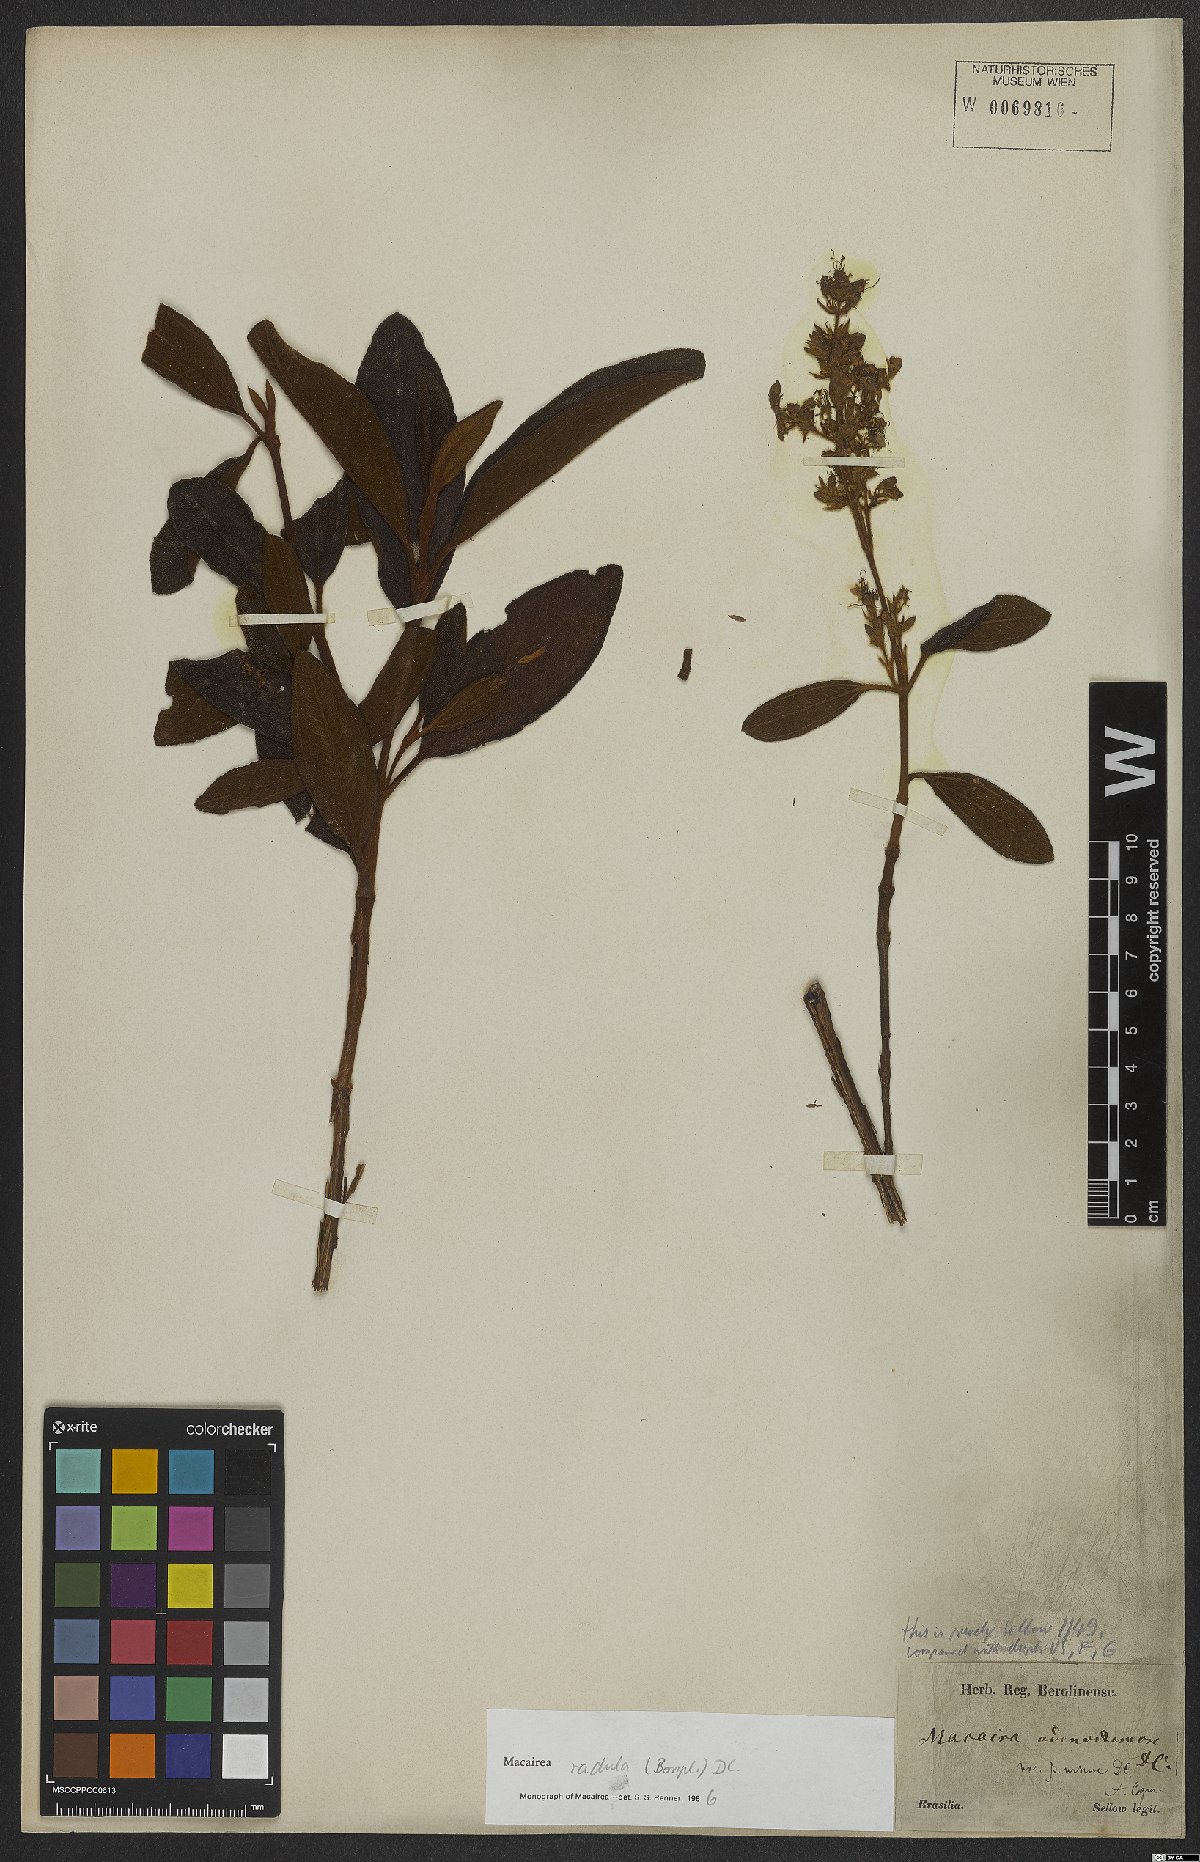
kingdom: Plantae
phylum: Tracheophyta
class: Magnoliopsida
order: Myrtales
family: Melastomataceae
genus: Macairea
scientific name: Macairea radula
